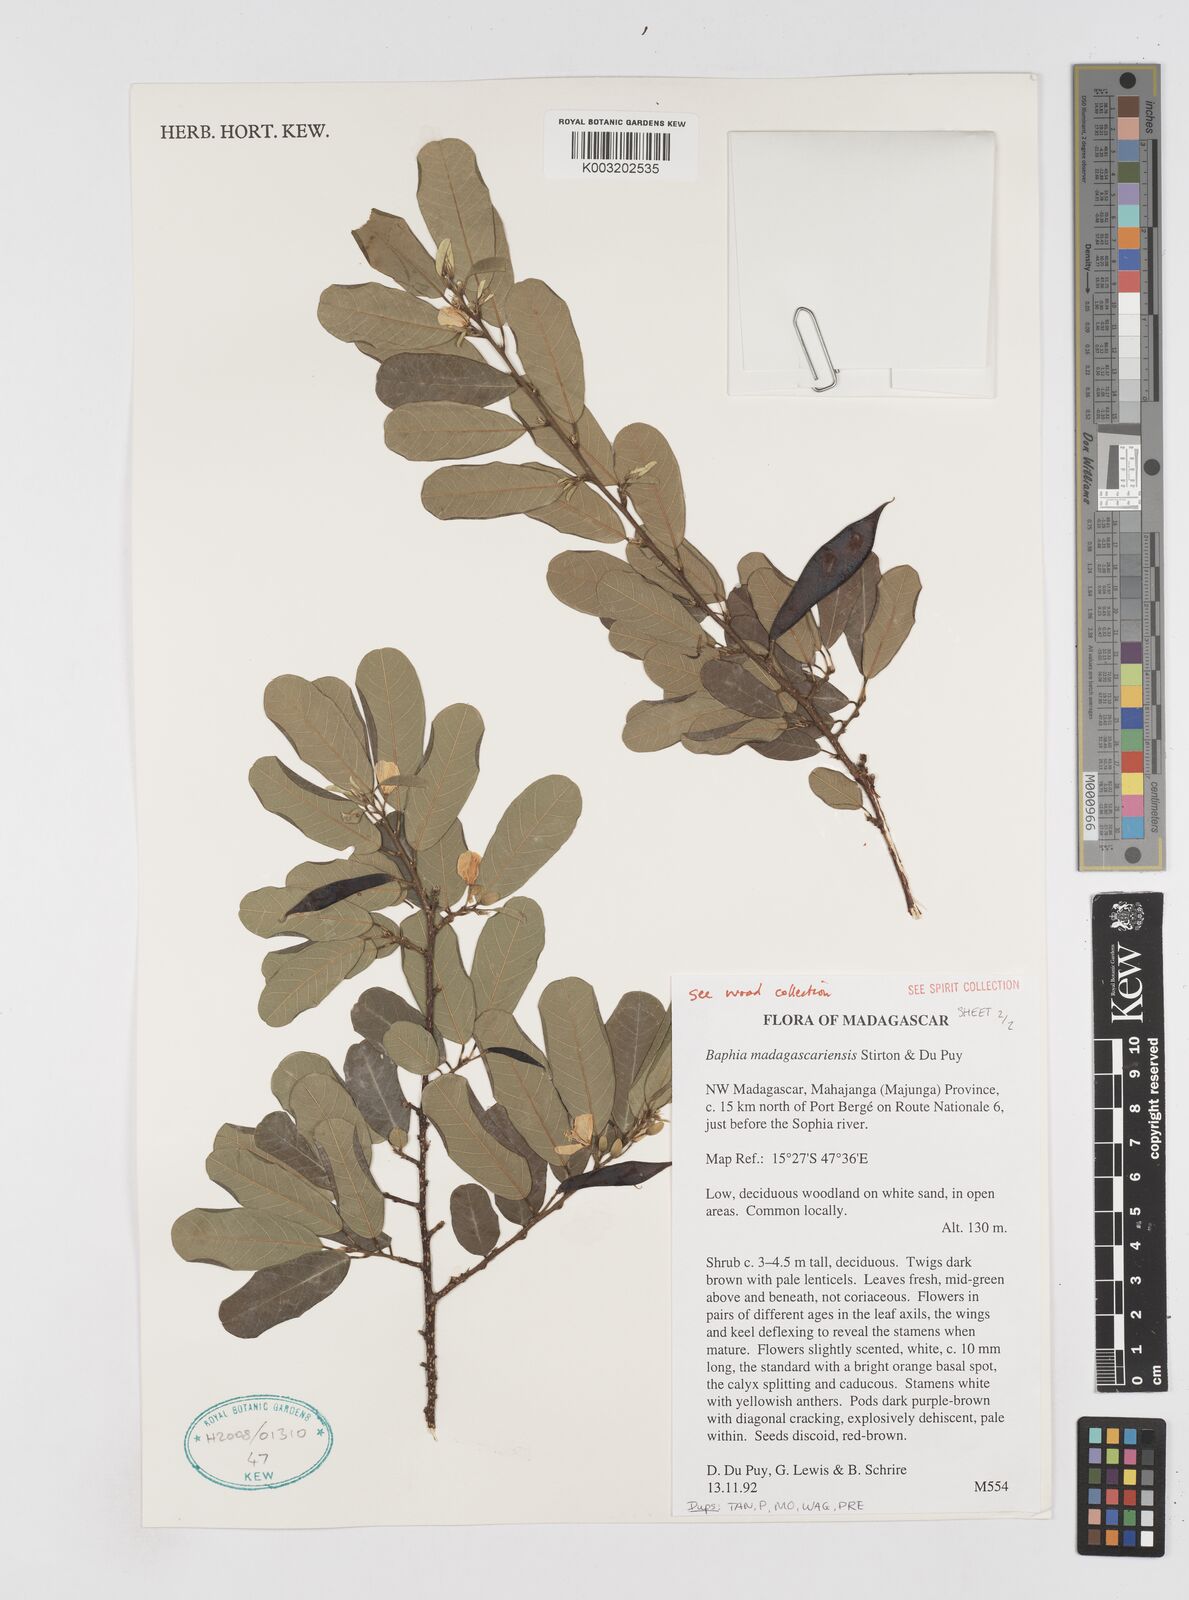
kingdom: Plantae
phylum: Tracheophyta
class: Magnoliopsida
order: Fabales
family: Fabaceae
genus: Baphia
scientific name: Baphia madagascariensis
